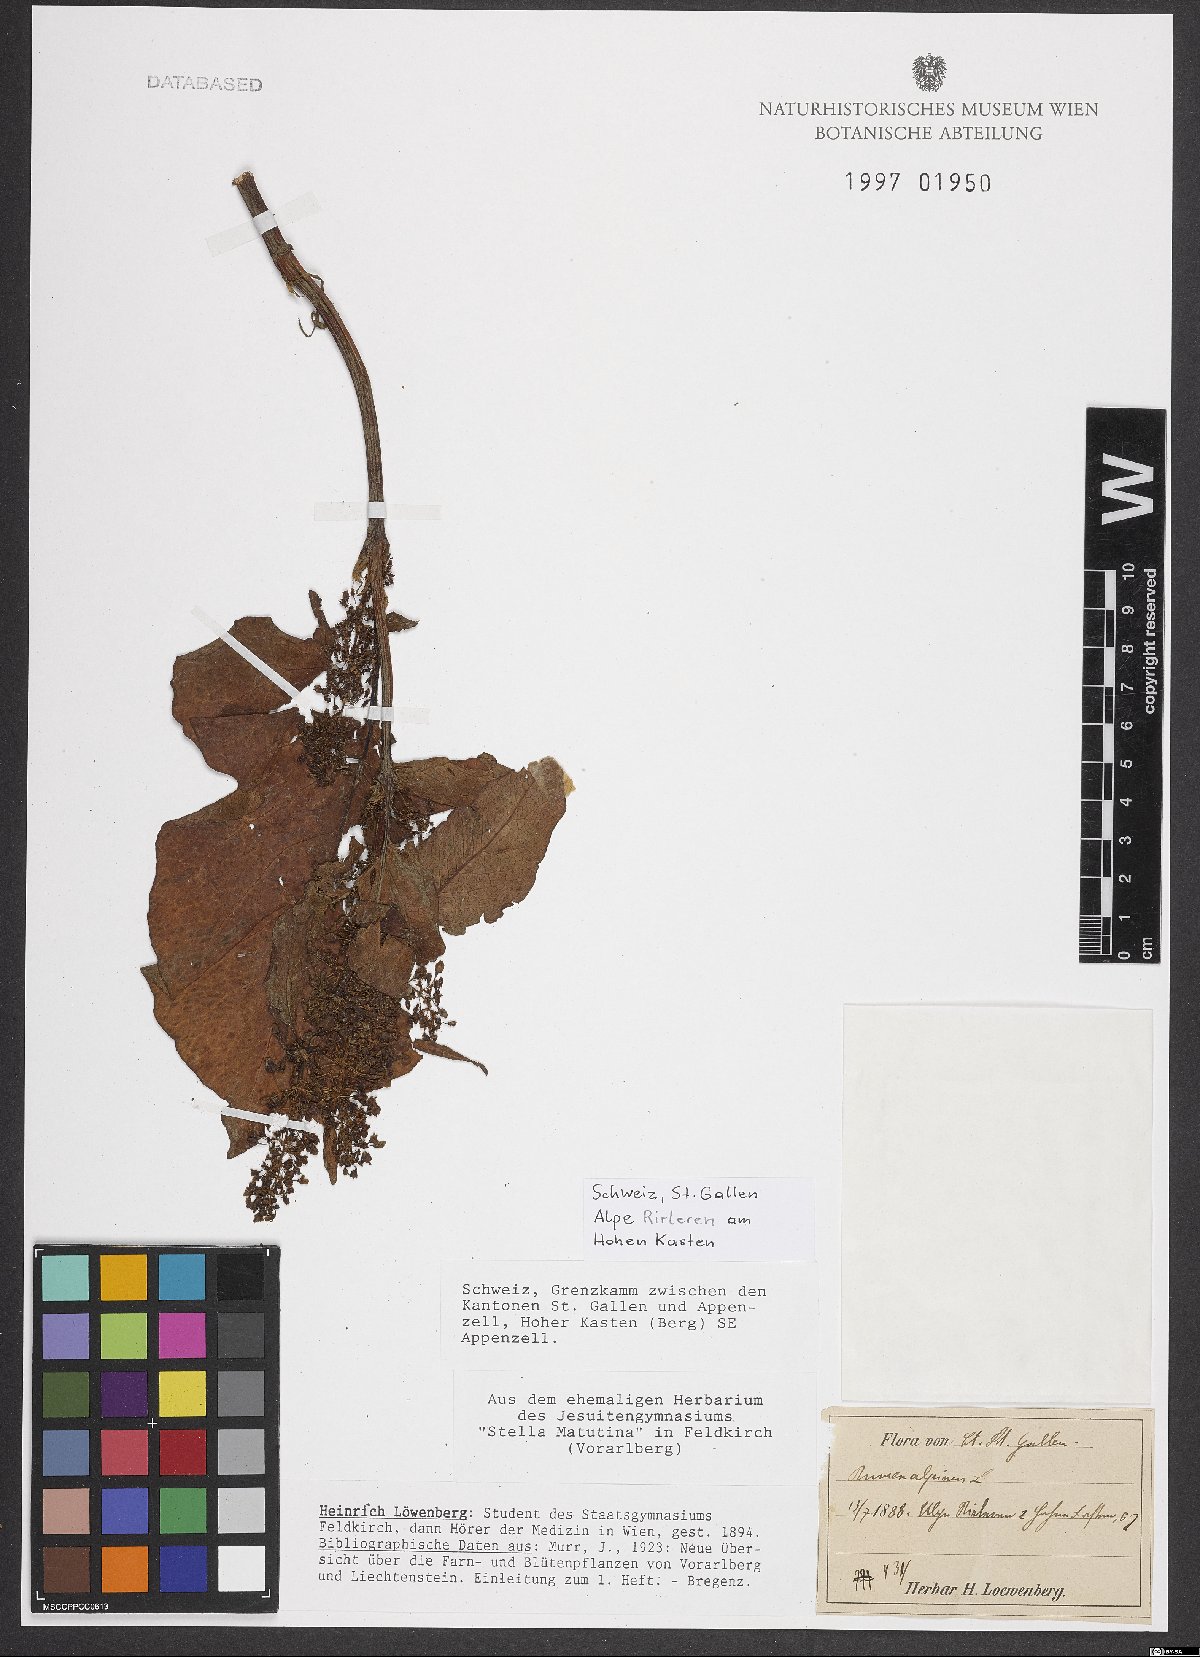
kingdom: Plantae
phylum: Tracheophyta
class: Magnoliopsida
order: Caryophyllales
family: Polygonaceae
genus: Rumex
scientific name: Rumex alpinus
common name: Alpine dock
